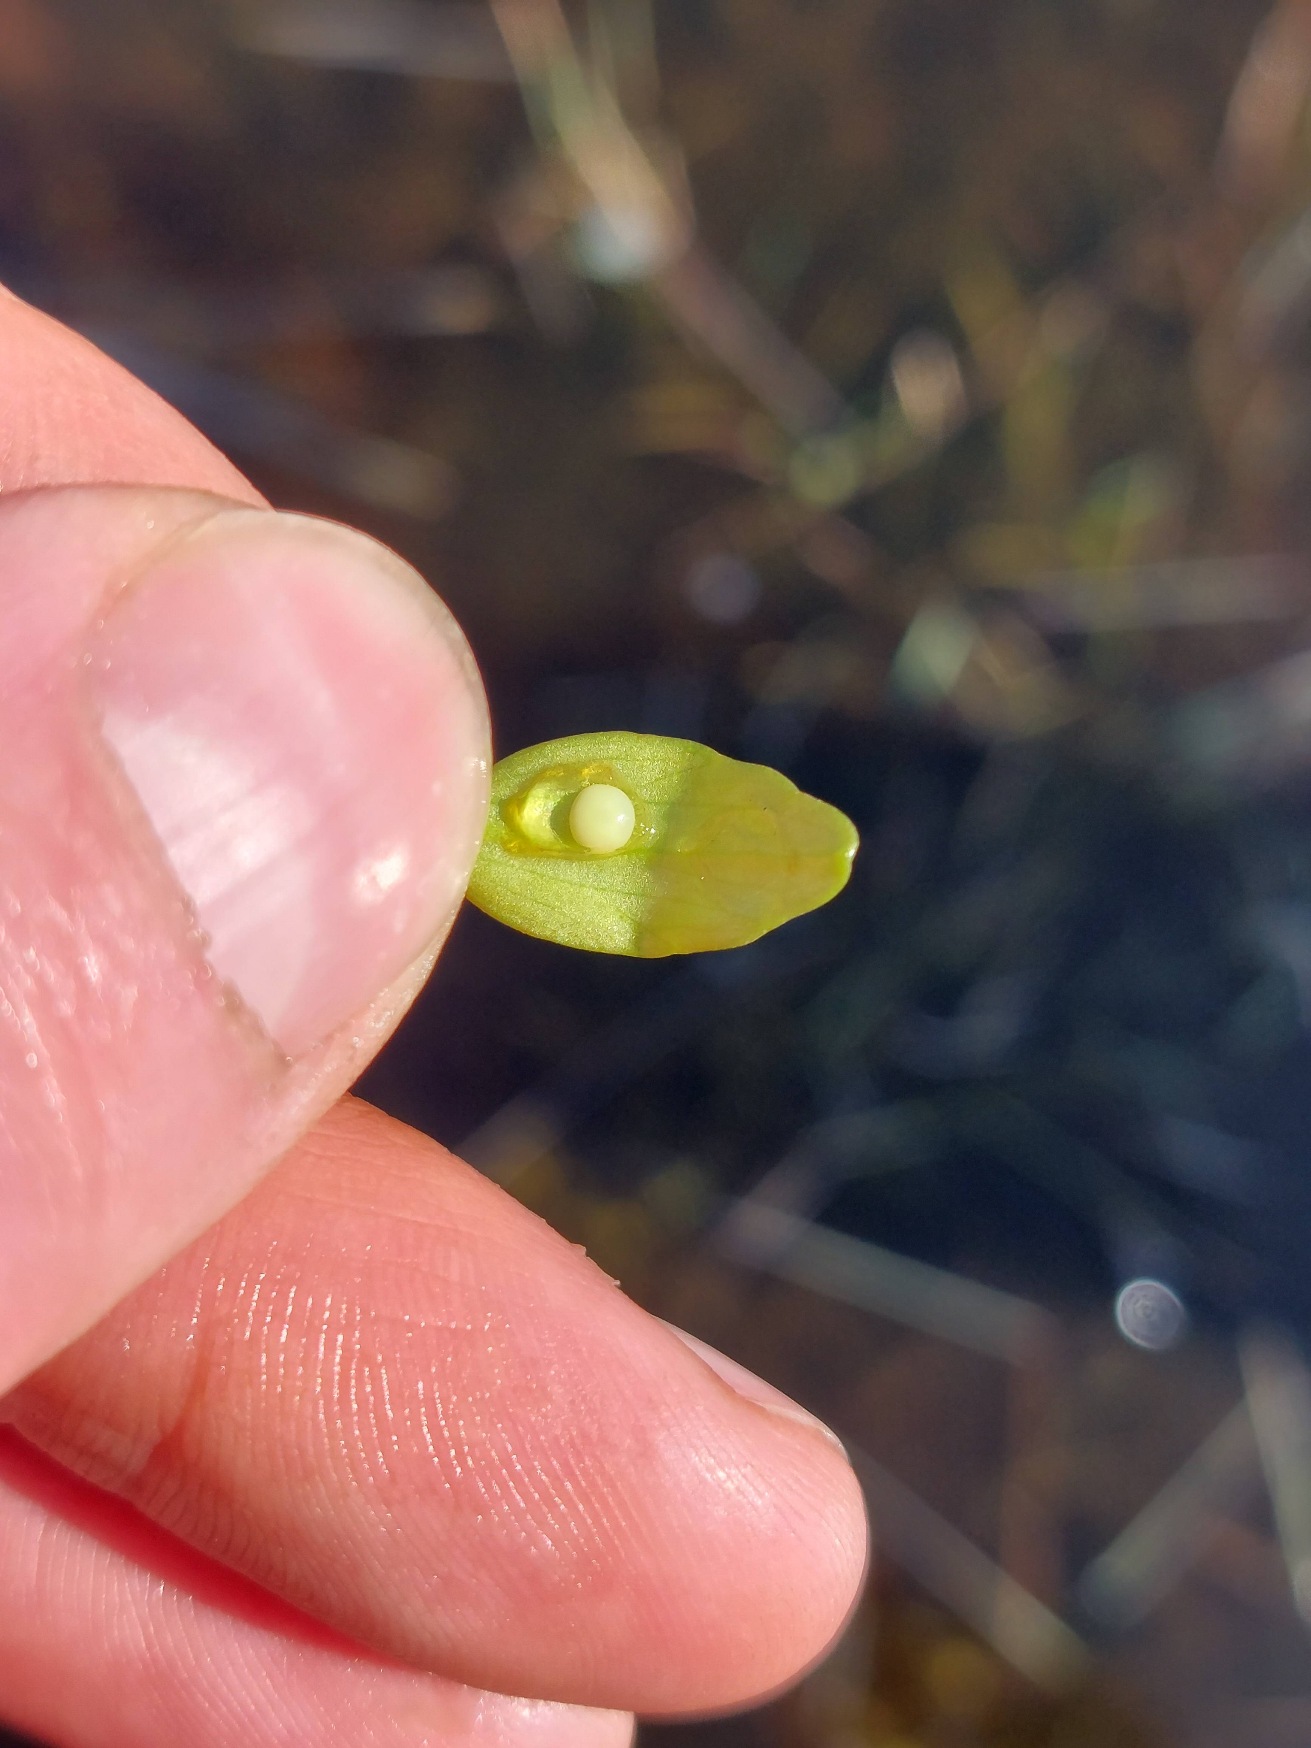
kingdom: Animalia
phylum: Chordata
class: Amphibia
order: Caudata
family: Salamandridae
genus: Triturus
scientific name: Triturus cristatus
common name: Stor vandsalamander
